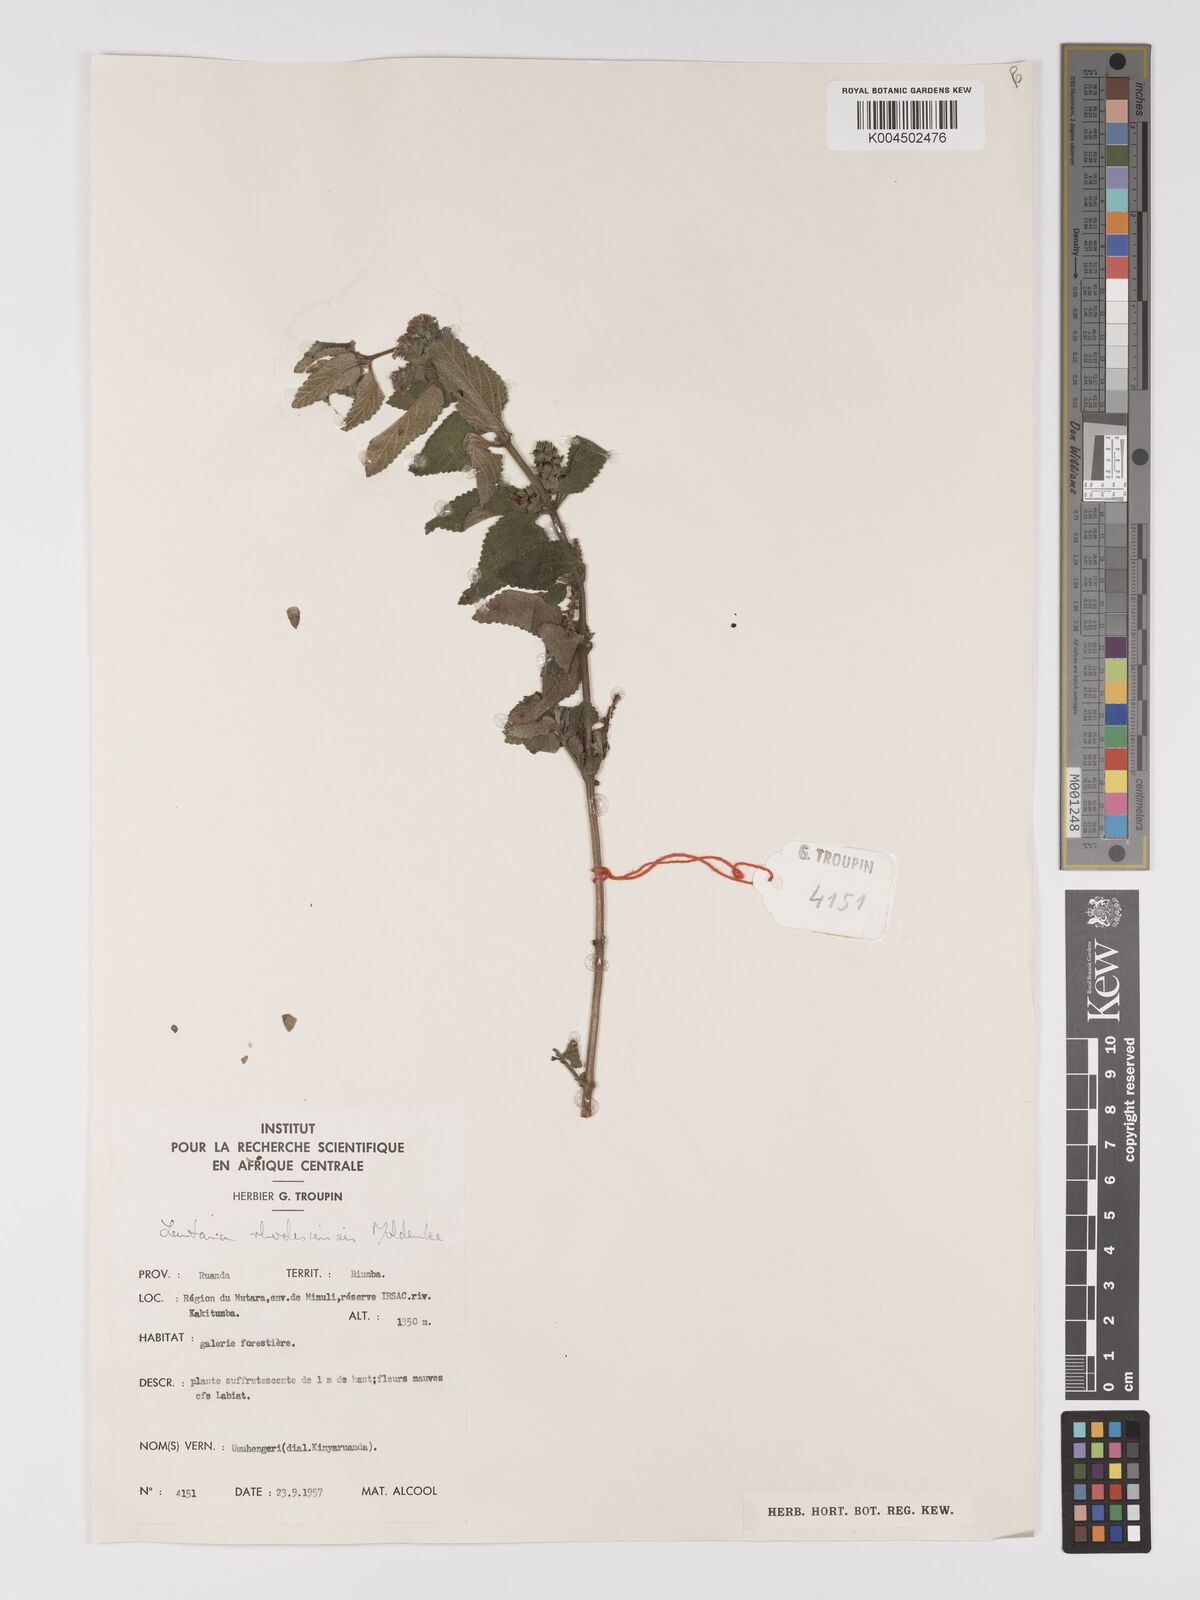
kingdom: Plantae
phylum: Tracheophyta
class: Magnoliopsida
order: Lamiales
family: Verbenaceae
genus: Lantana
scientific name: Lantana ukambensis
